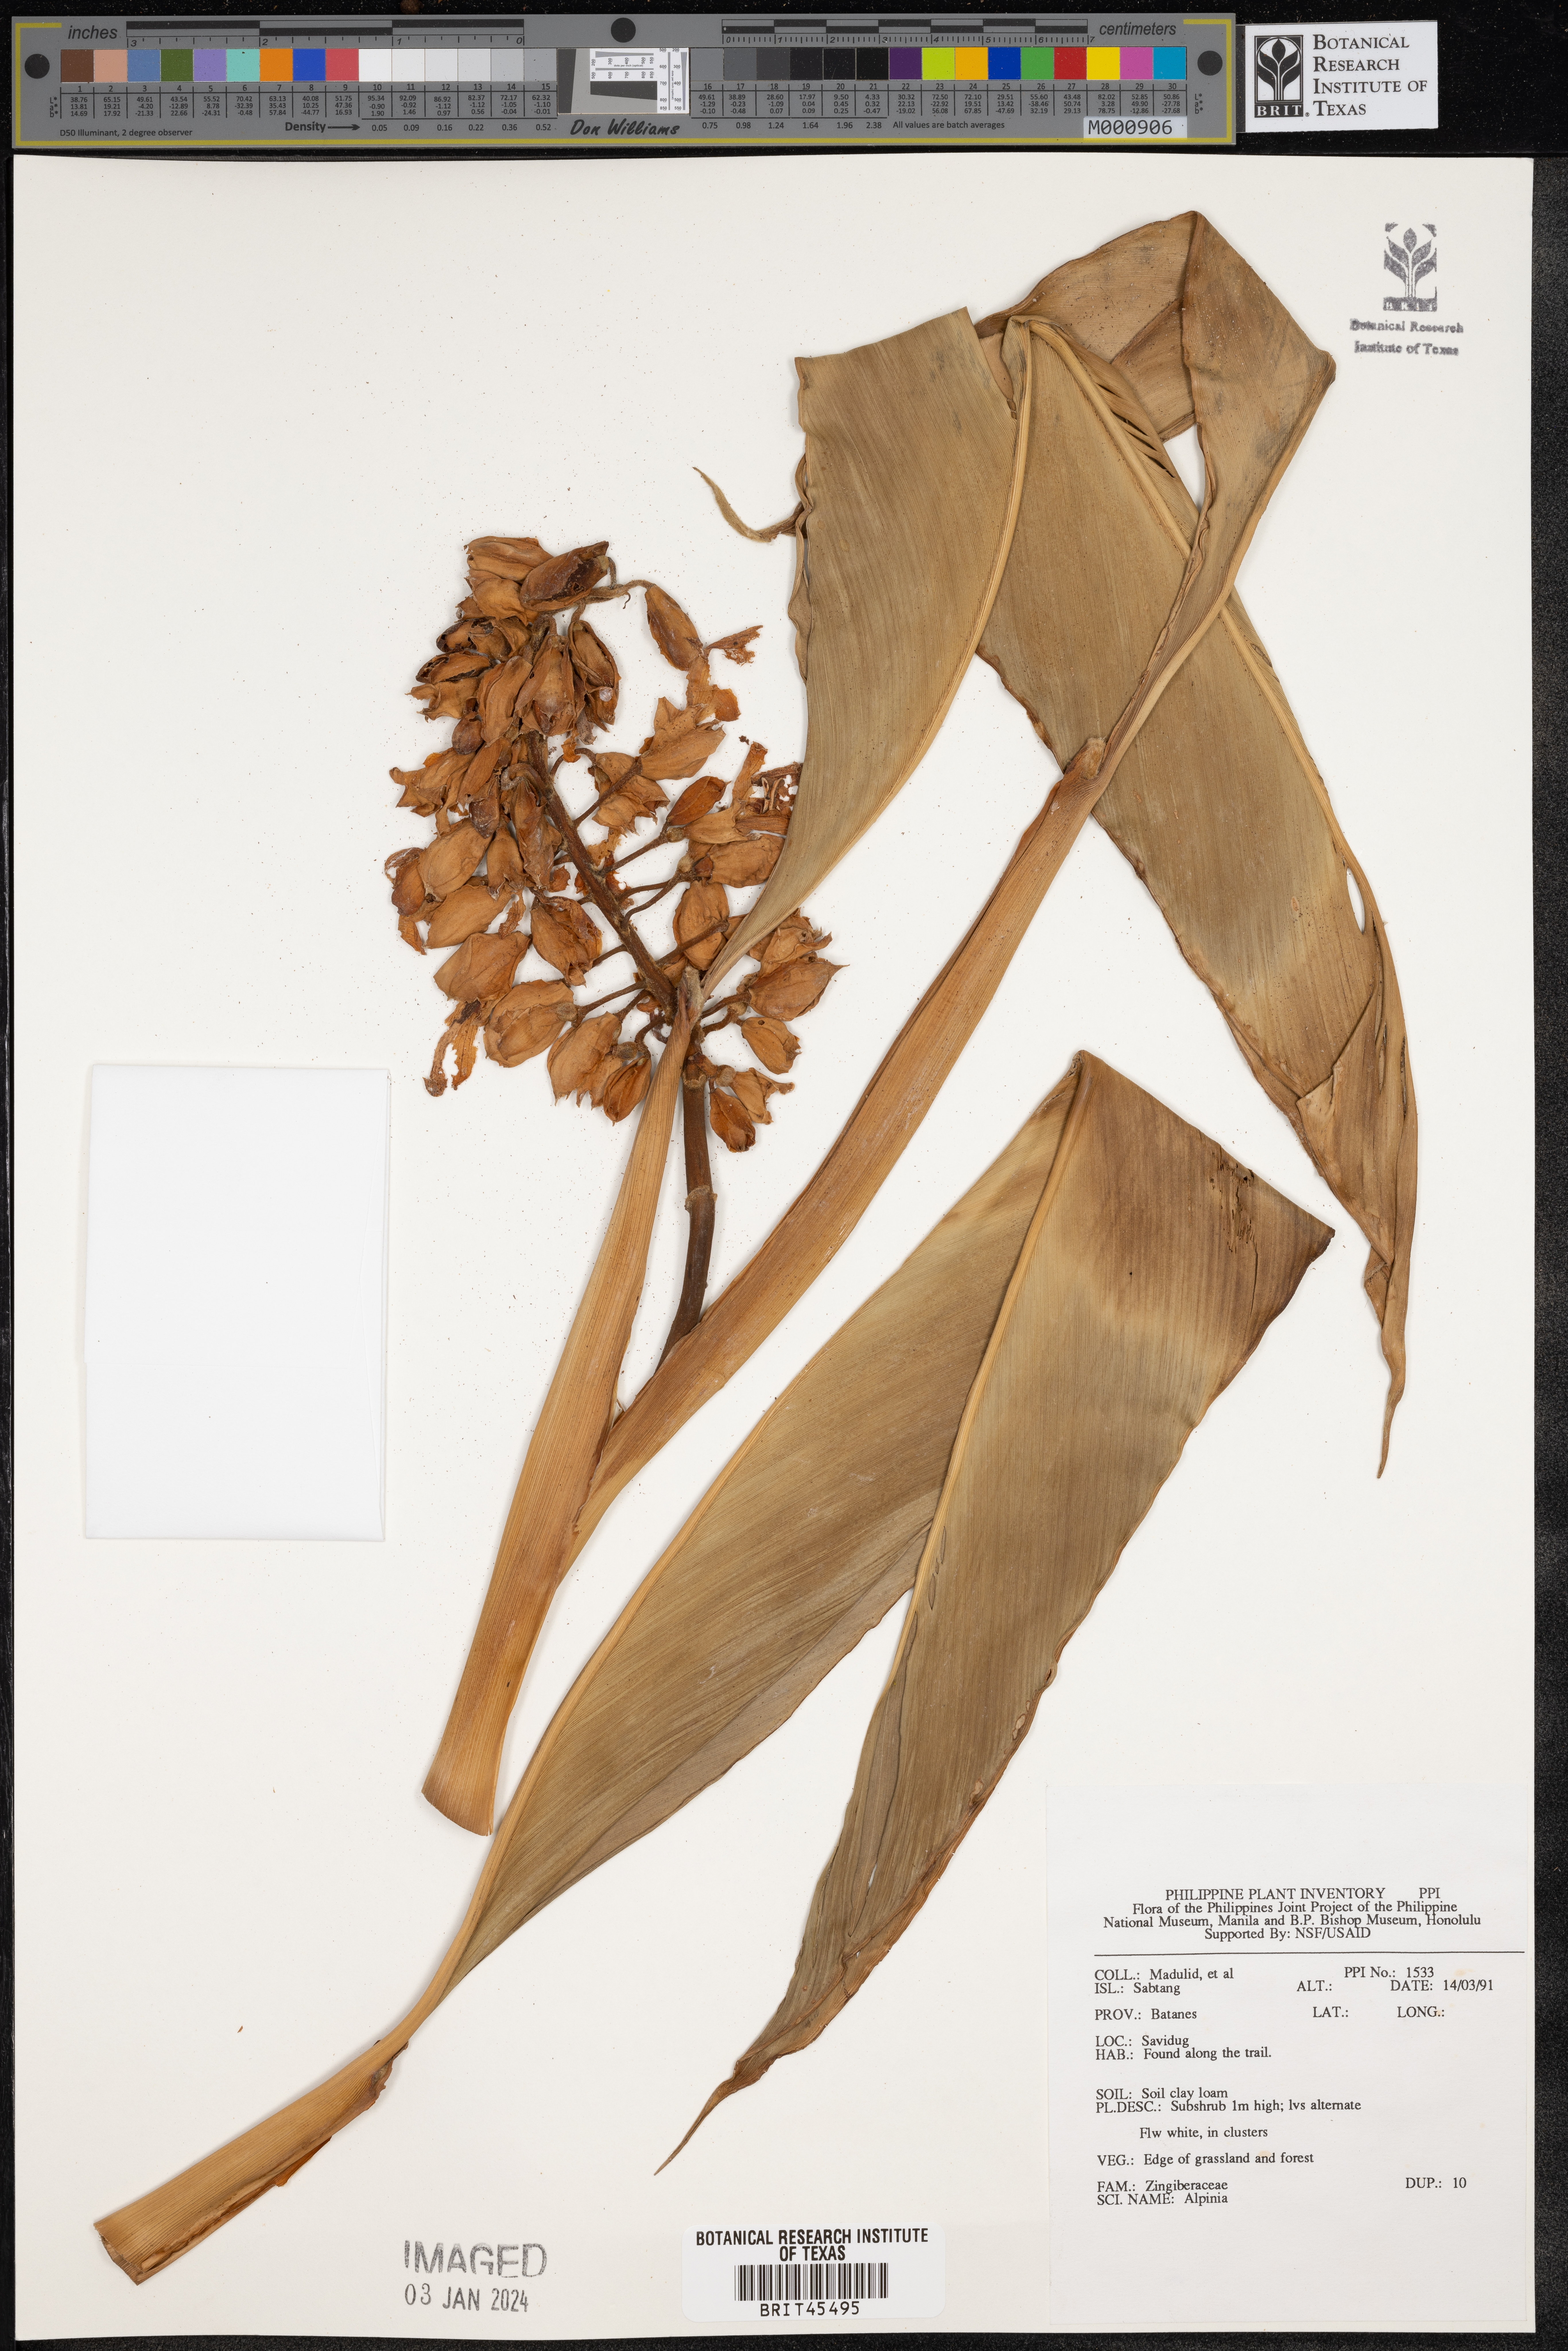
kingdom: Plantae
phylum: Tracheophyta
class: Liliopsida
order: Zingiberales
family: Zingiberaceae
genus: Alpinia
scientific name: Alpinia
